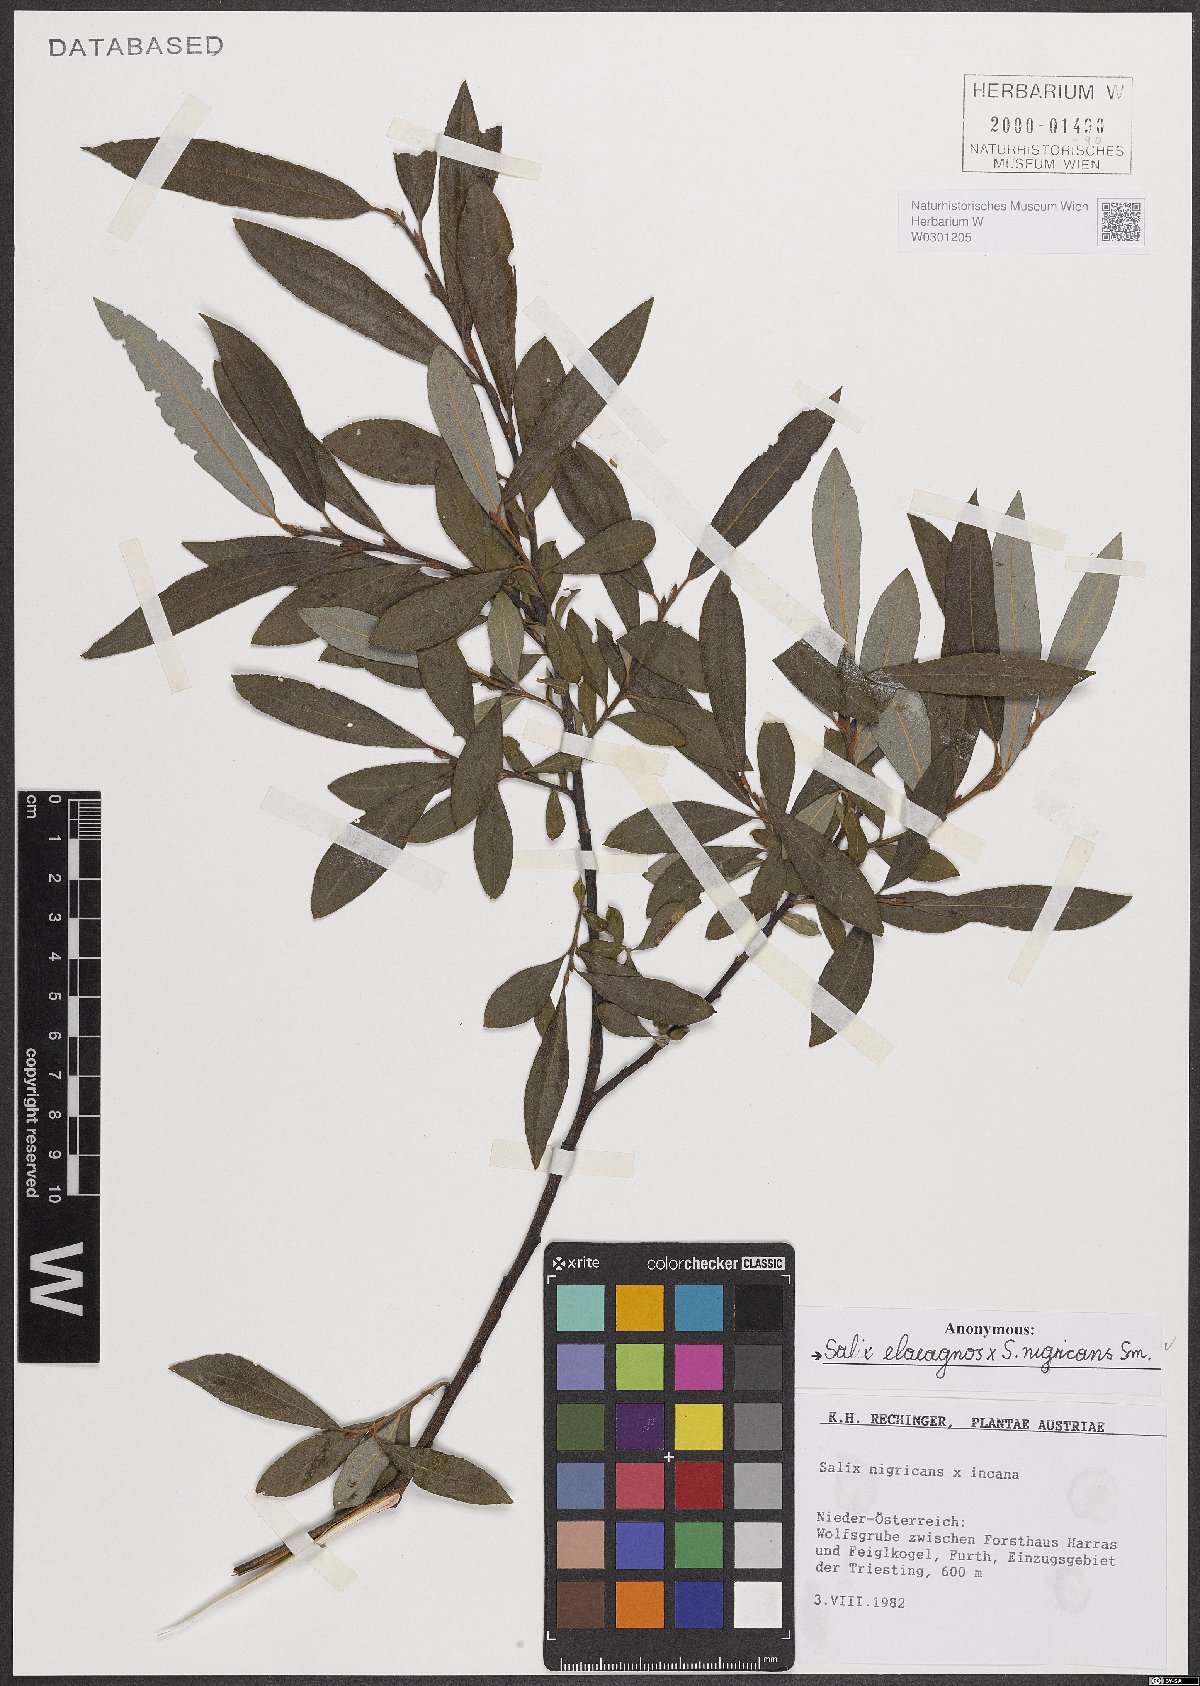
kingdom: Plantae
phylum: Tracheophyta
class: Magnoliopsida
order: Malpighiales
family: Salicaceae
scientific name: Salicaceae
